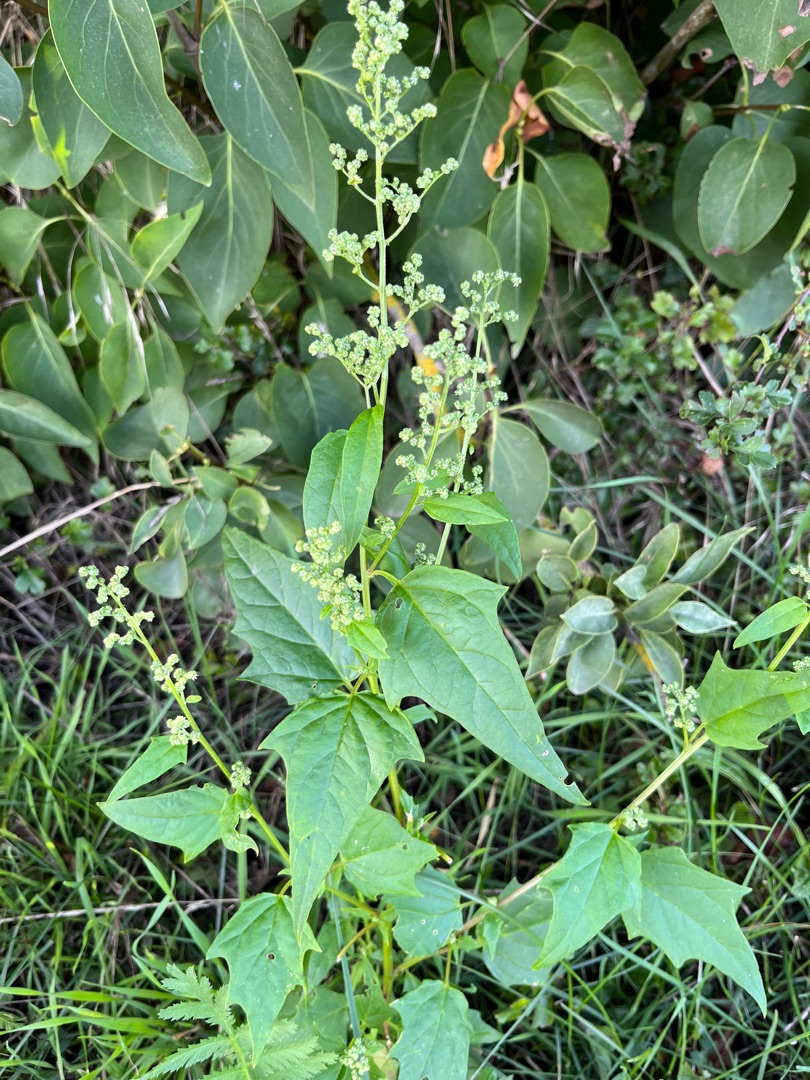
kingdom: Plantae
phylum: Tracheophyta
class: Magnoliopsida
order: Caryophyllales
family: Amaranthaceae
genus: Chenopodiastrum
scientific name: Chenopodiastrum hybridum
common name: Hjertebladet gåsefod
